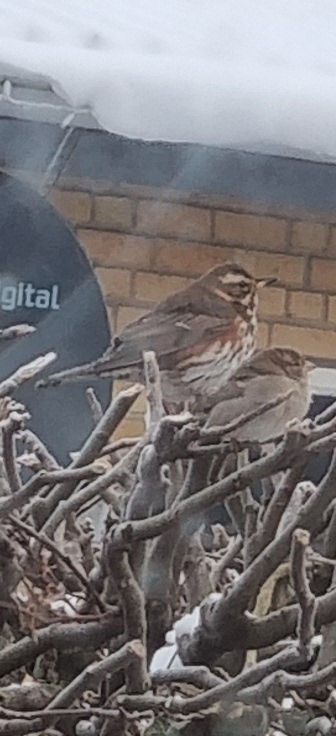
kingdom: Animalia
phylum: Chordata
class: Aves
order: Passeriformes
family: Turdidae
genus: Turdus
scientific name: Turdus iliacus
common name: Vindrossel
